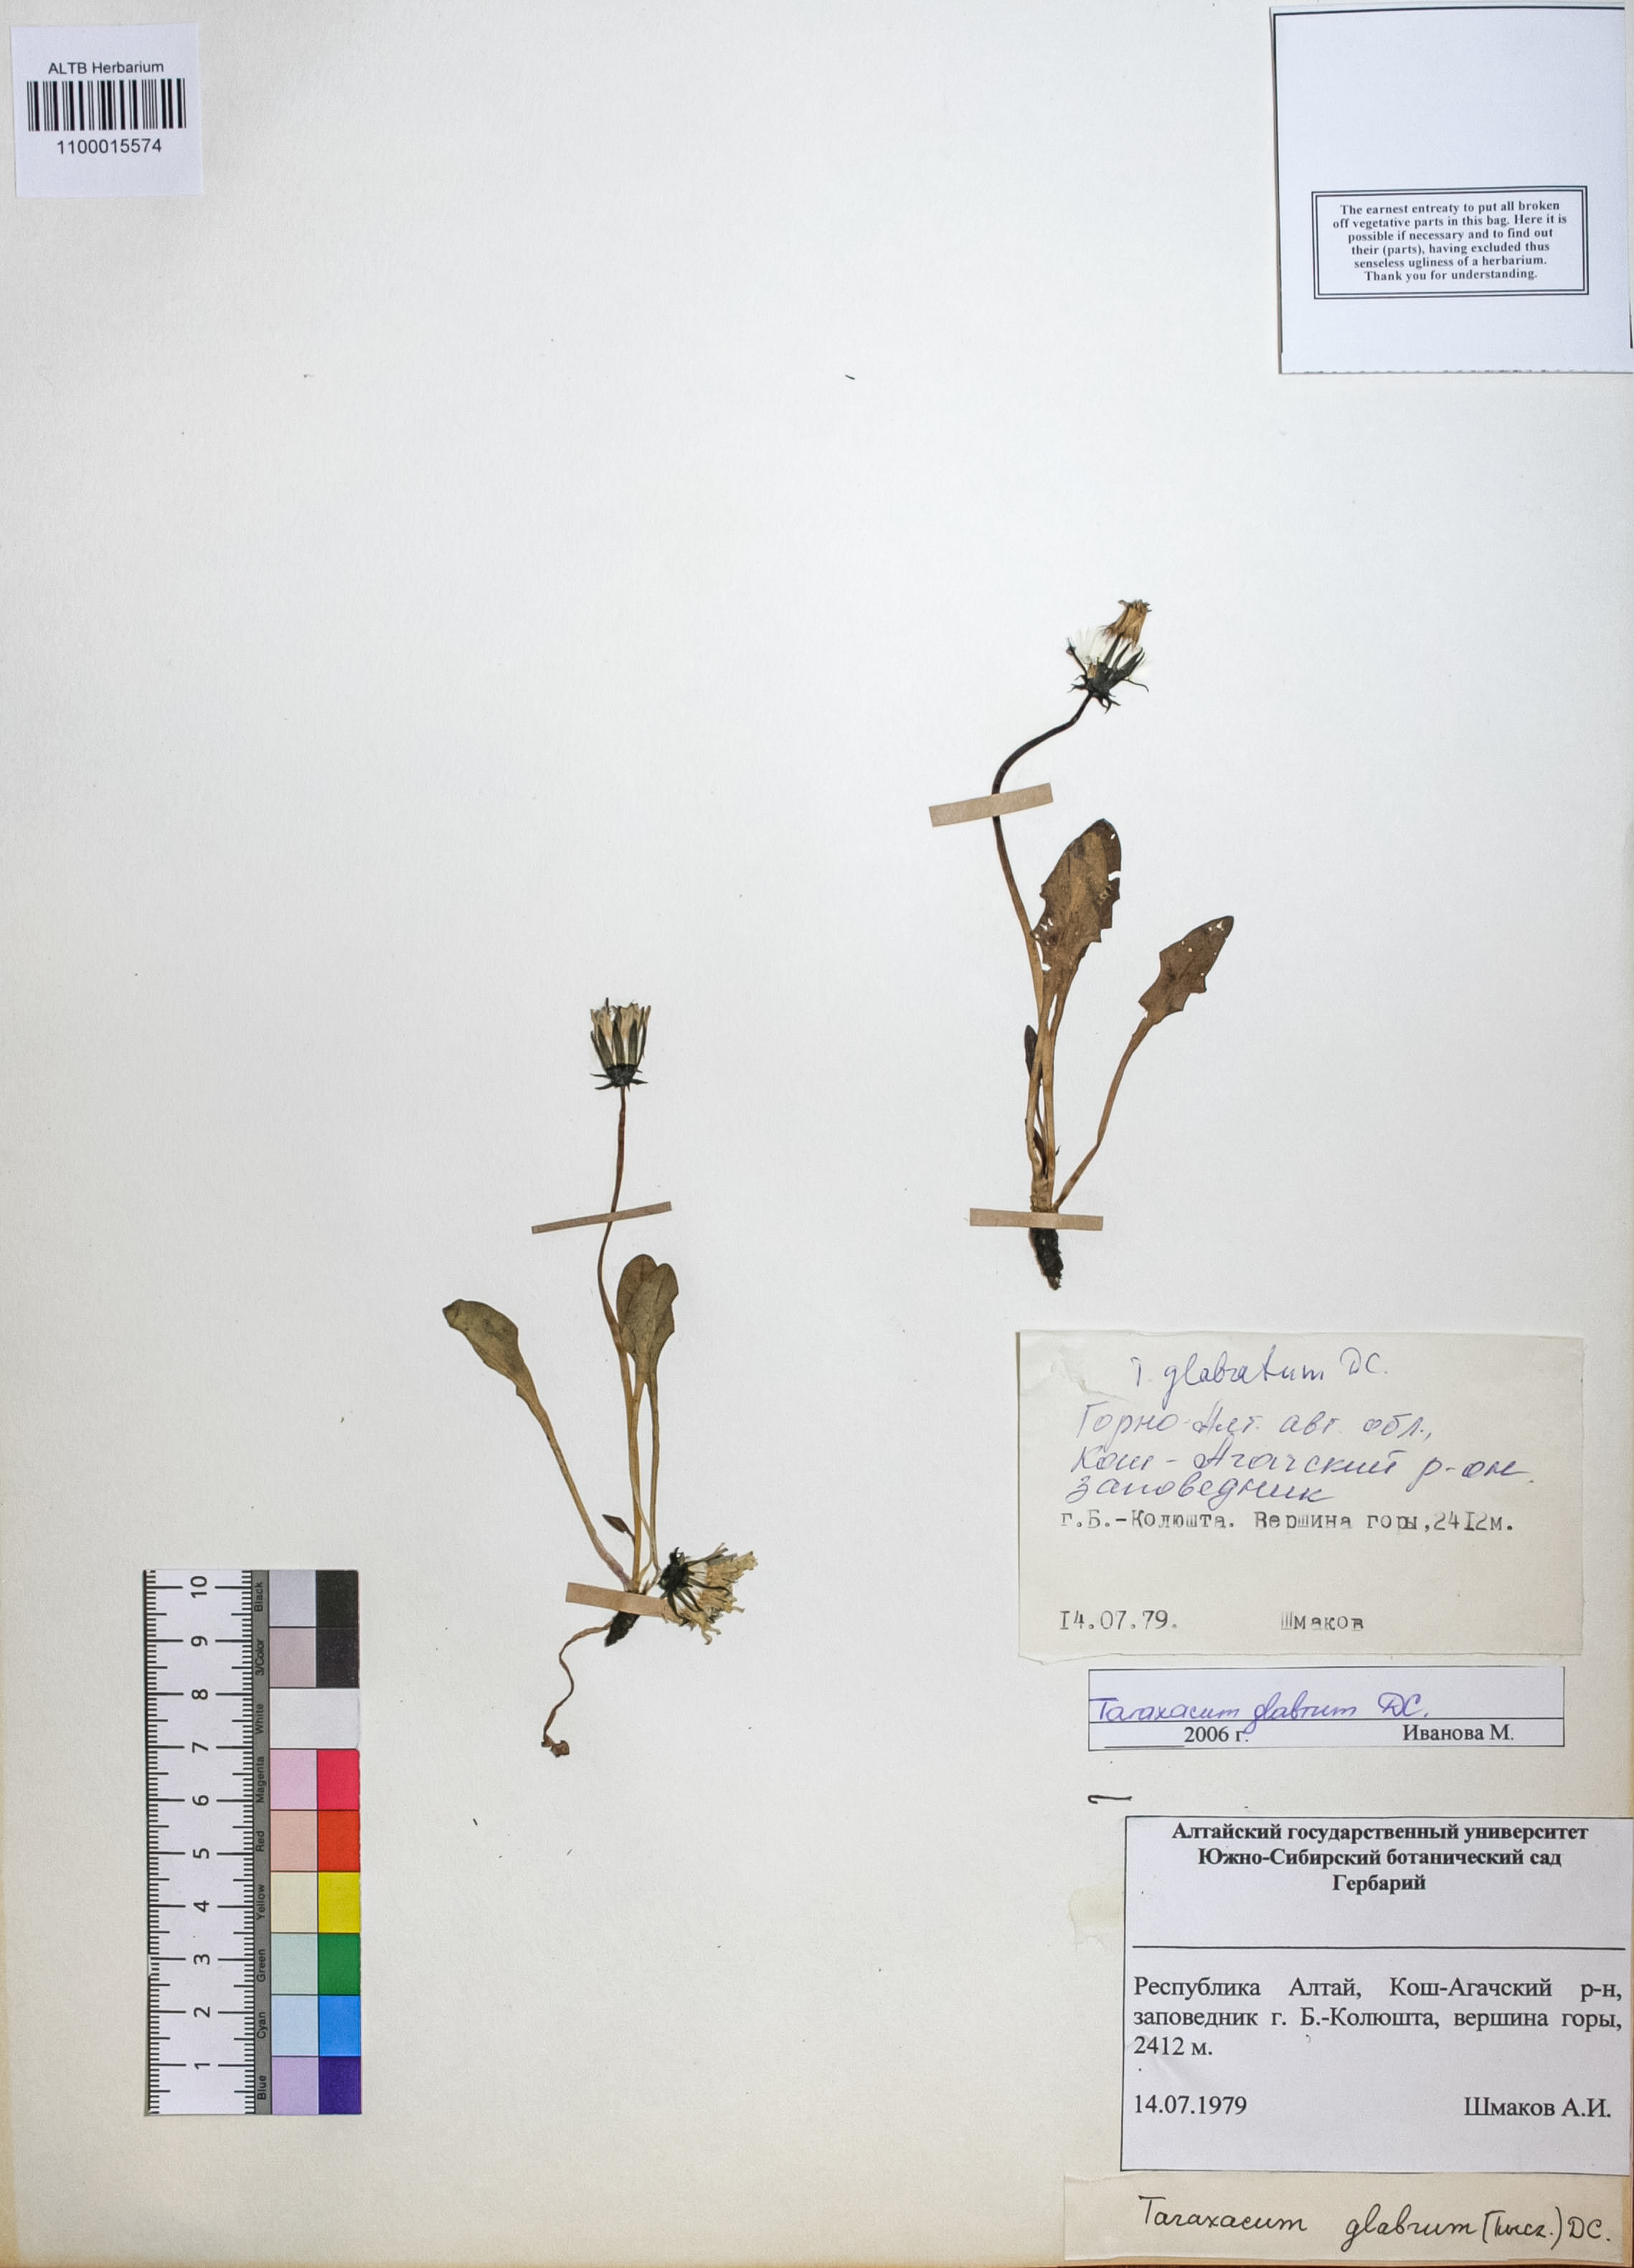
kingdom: Plantae
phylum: Tracheophyta
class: Magnoliopsida
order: Asterales
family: Asteraceae
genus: Taraxacum
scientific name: Taraxacum glabrum
